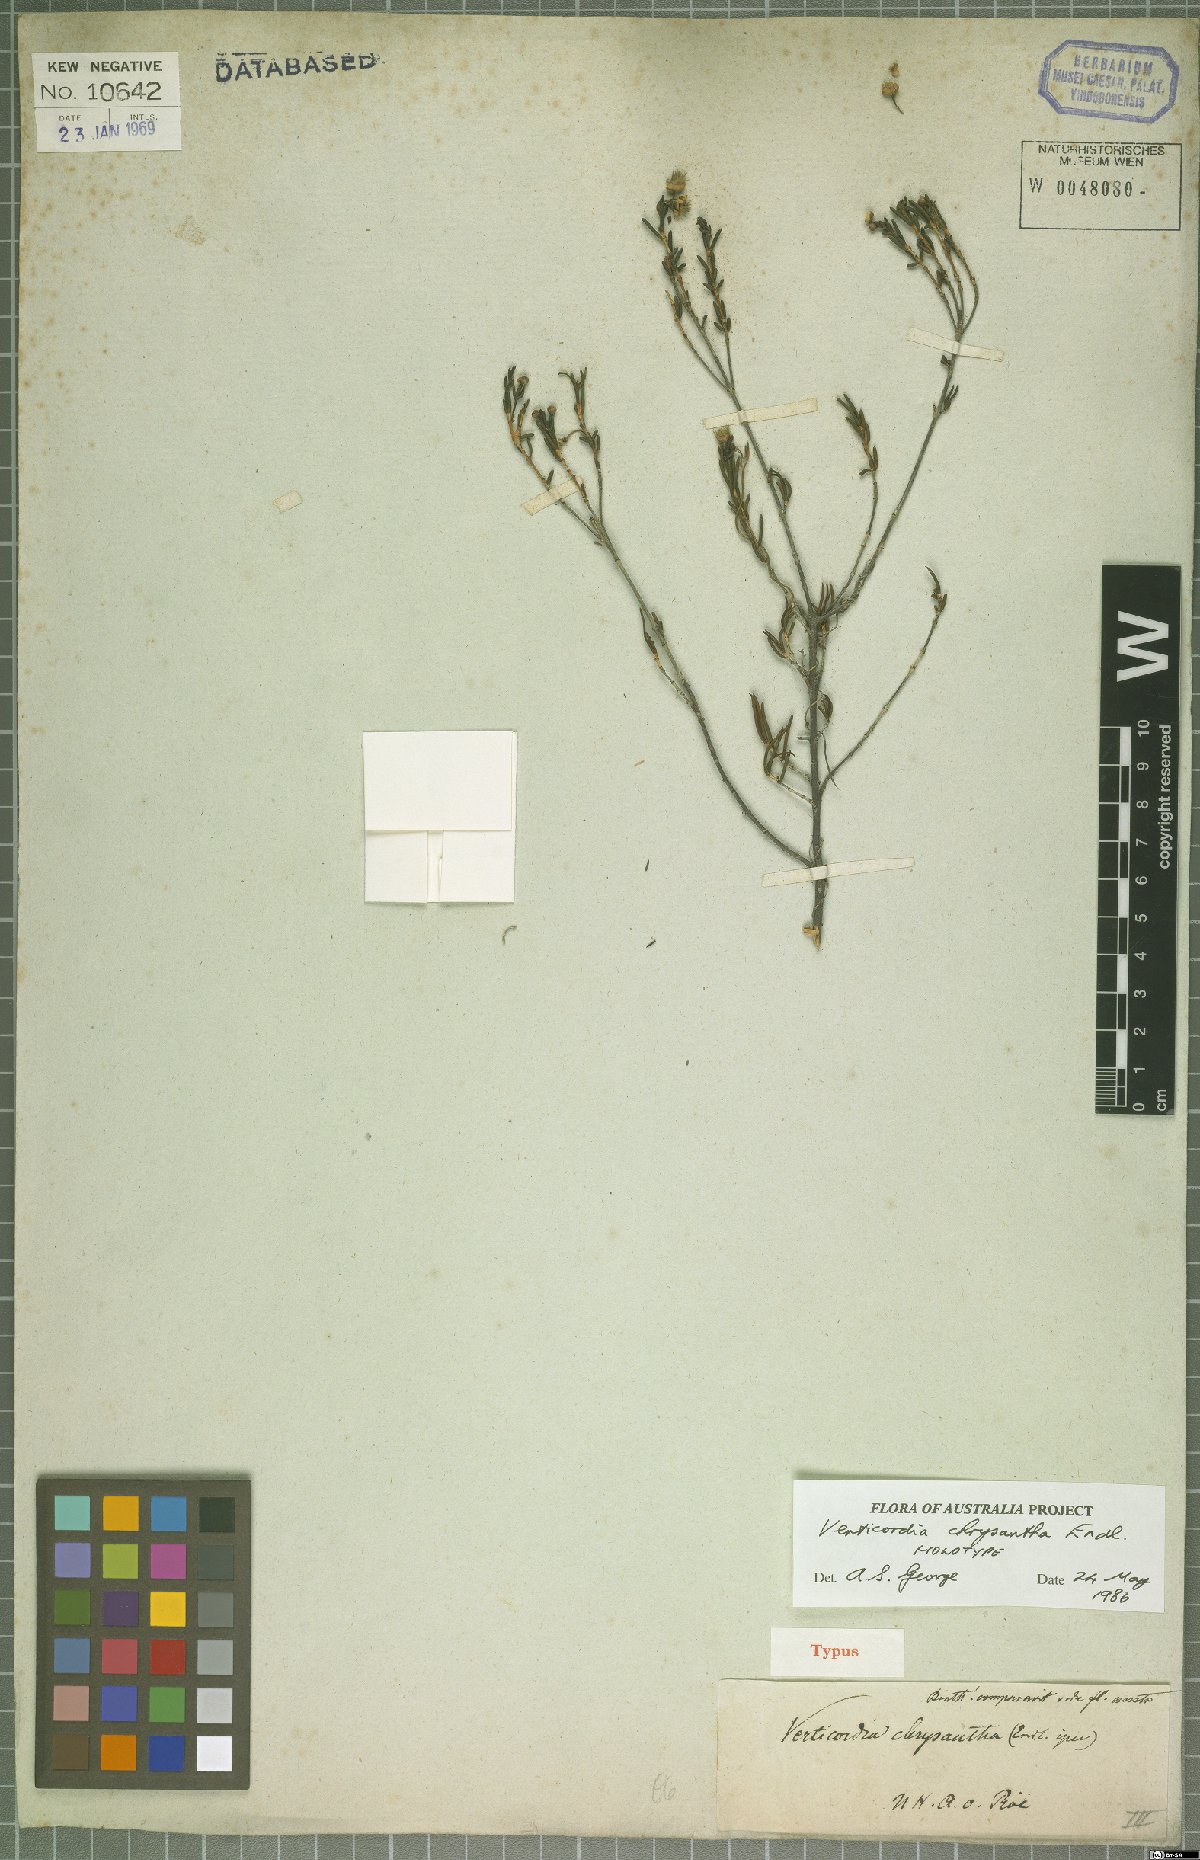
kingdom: Plantae
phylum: Tracheophyta
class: Magnoliopsida
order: Myrtales
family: Myrtaceae
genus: Verticordia
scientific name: Verticordia chrysantha
